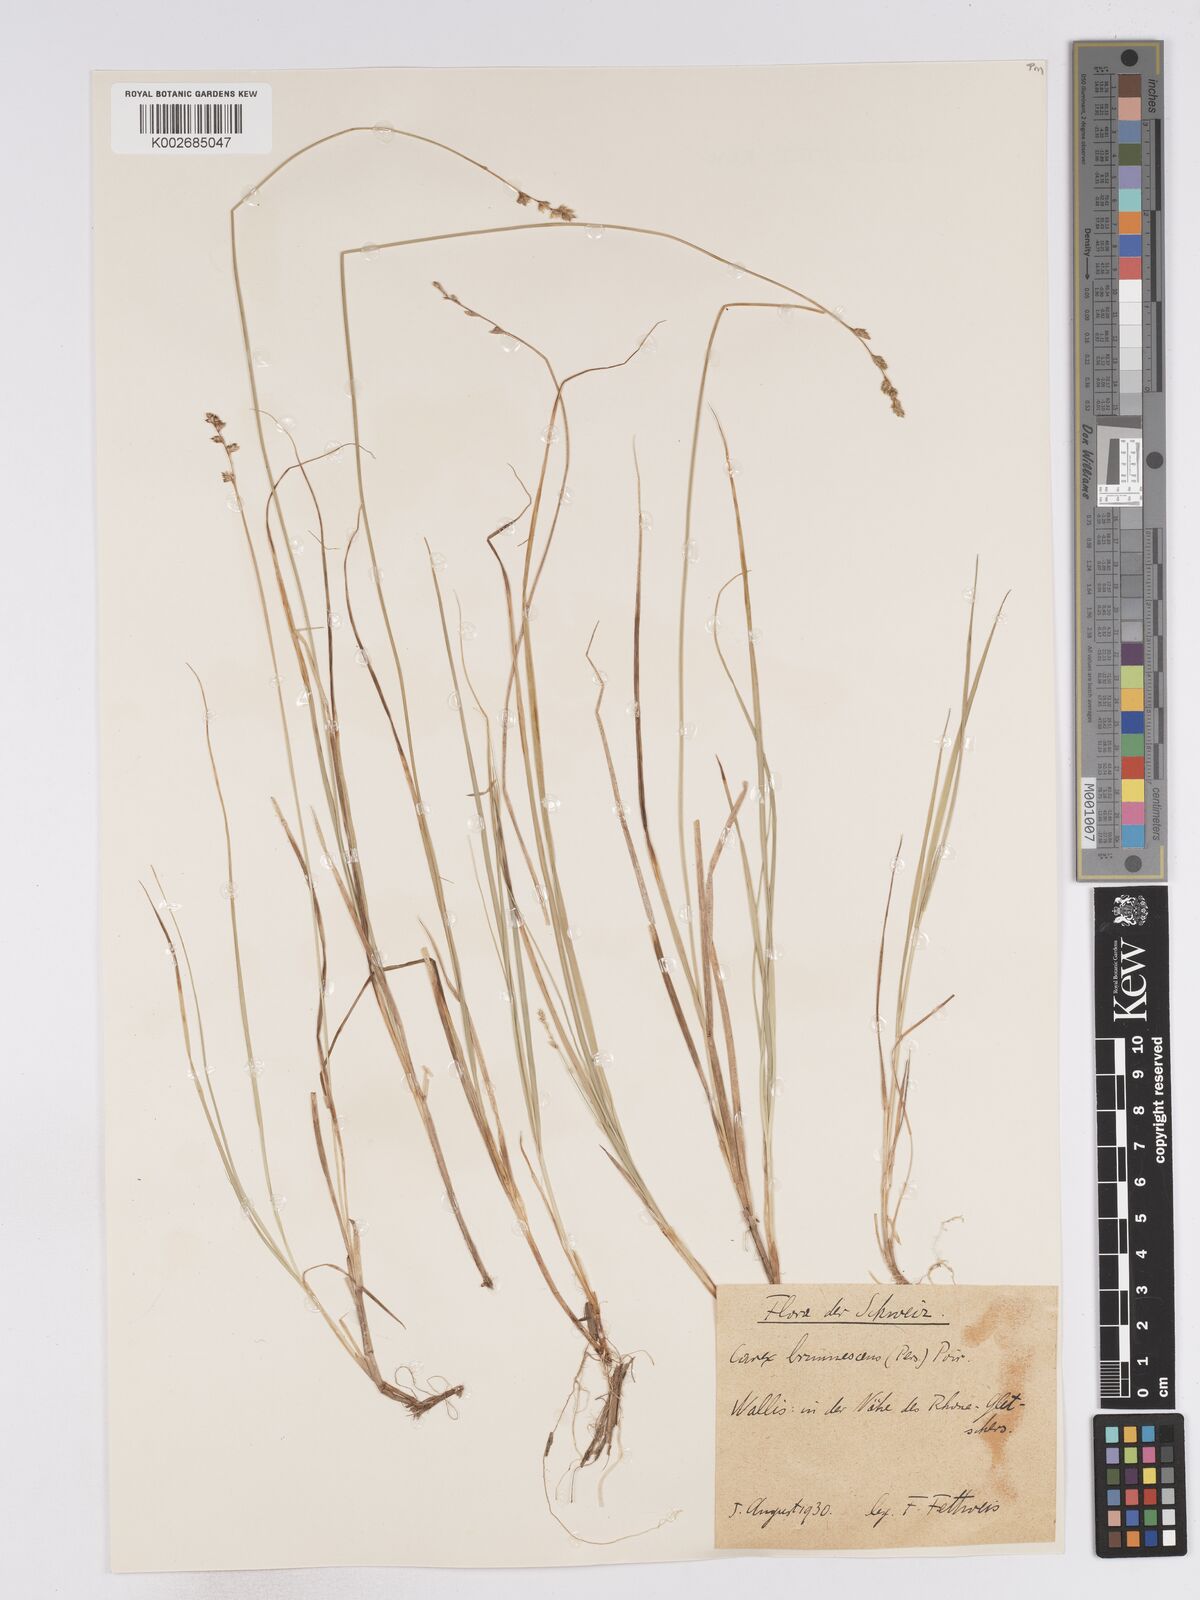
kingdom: Plantae
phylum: Tracheophyta
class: Liliopsida
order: Poales
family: Cyperaceae
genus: Carex
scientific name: Carex brunnescens
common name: Brown sedge
